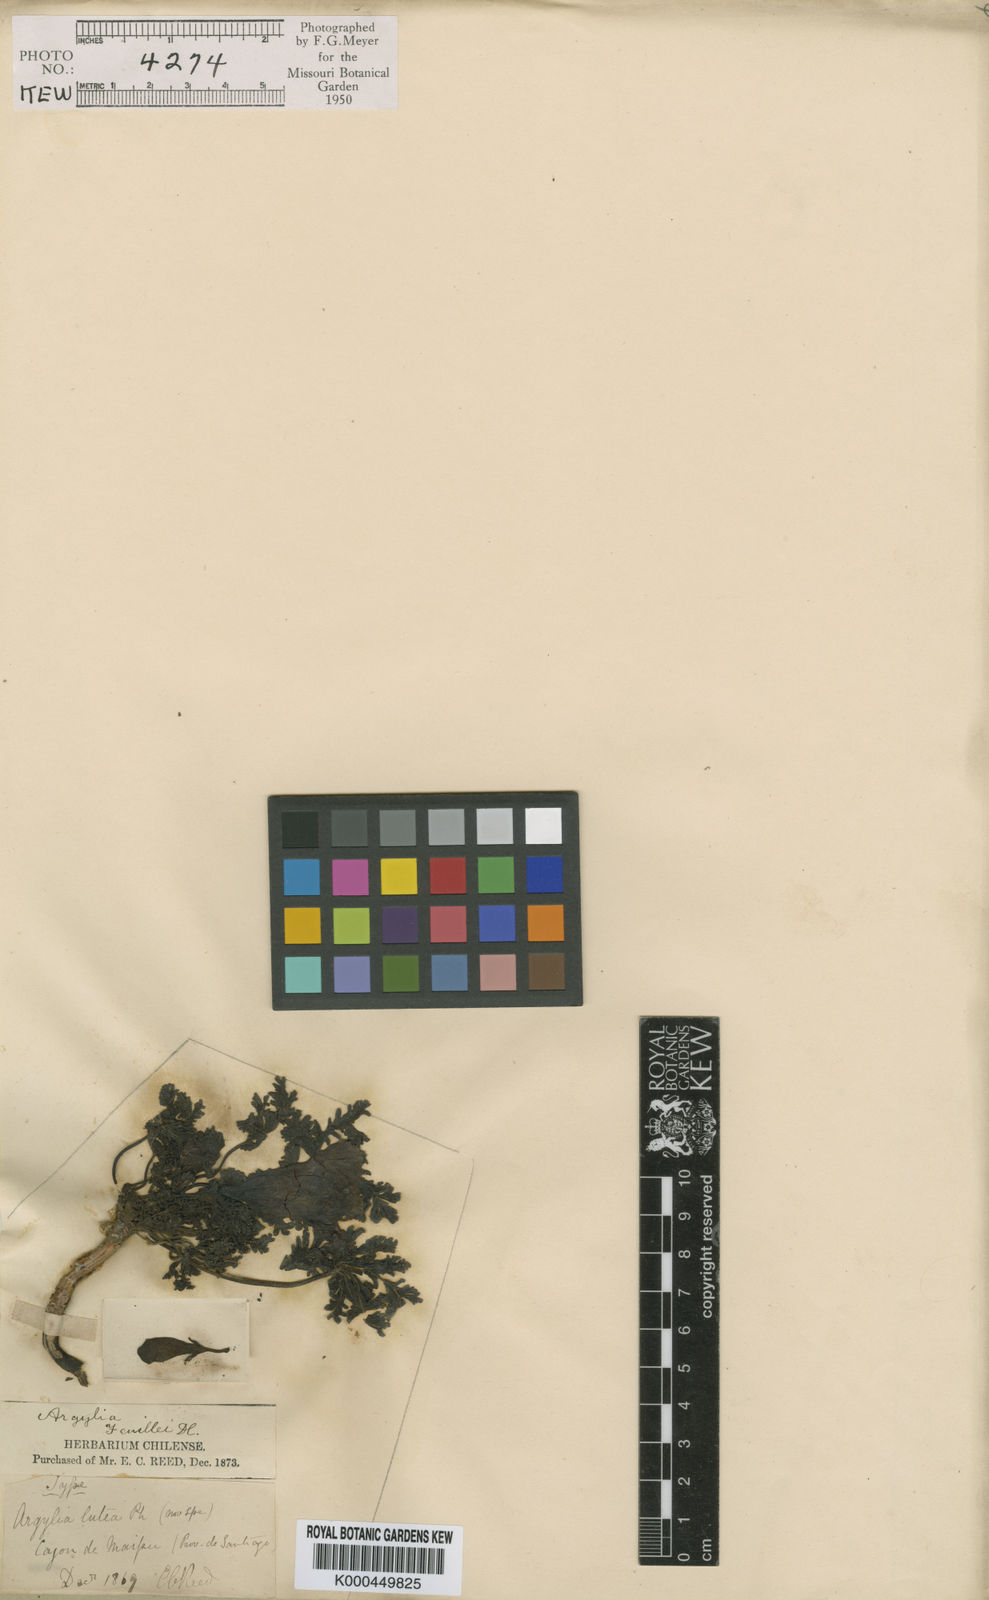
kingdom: Plantae
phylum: Tracheophyta
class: Magnoliopsida
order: Lamiales
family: Bignoniaceae
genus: Argylia
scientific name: Argylia adscendens
